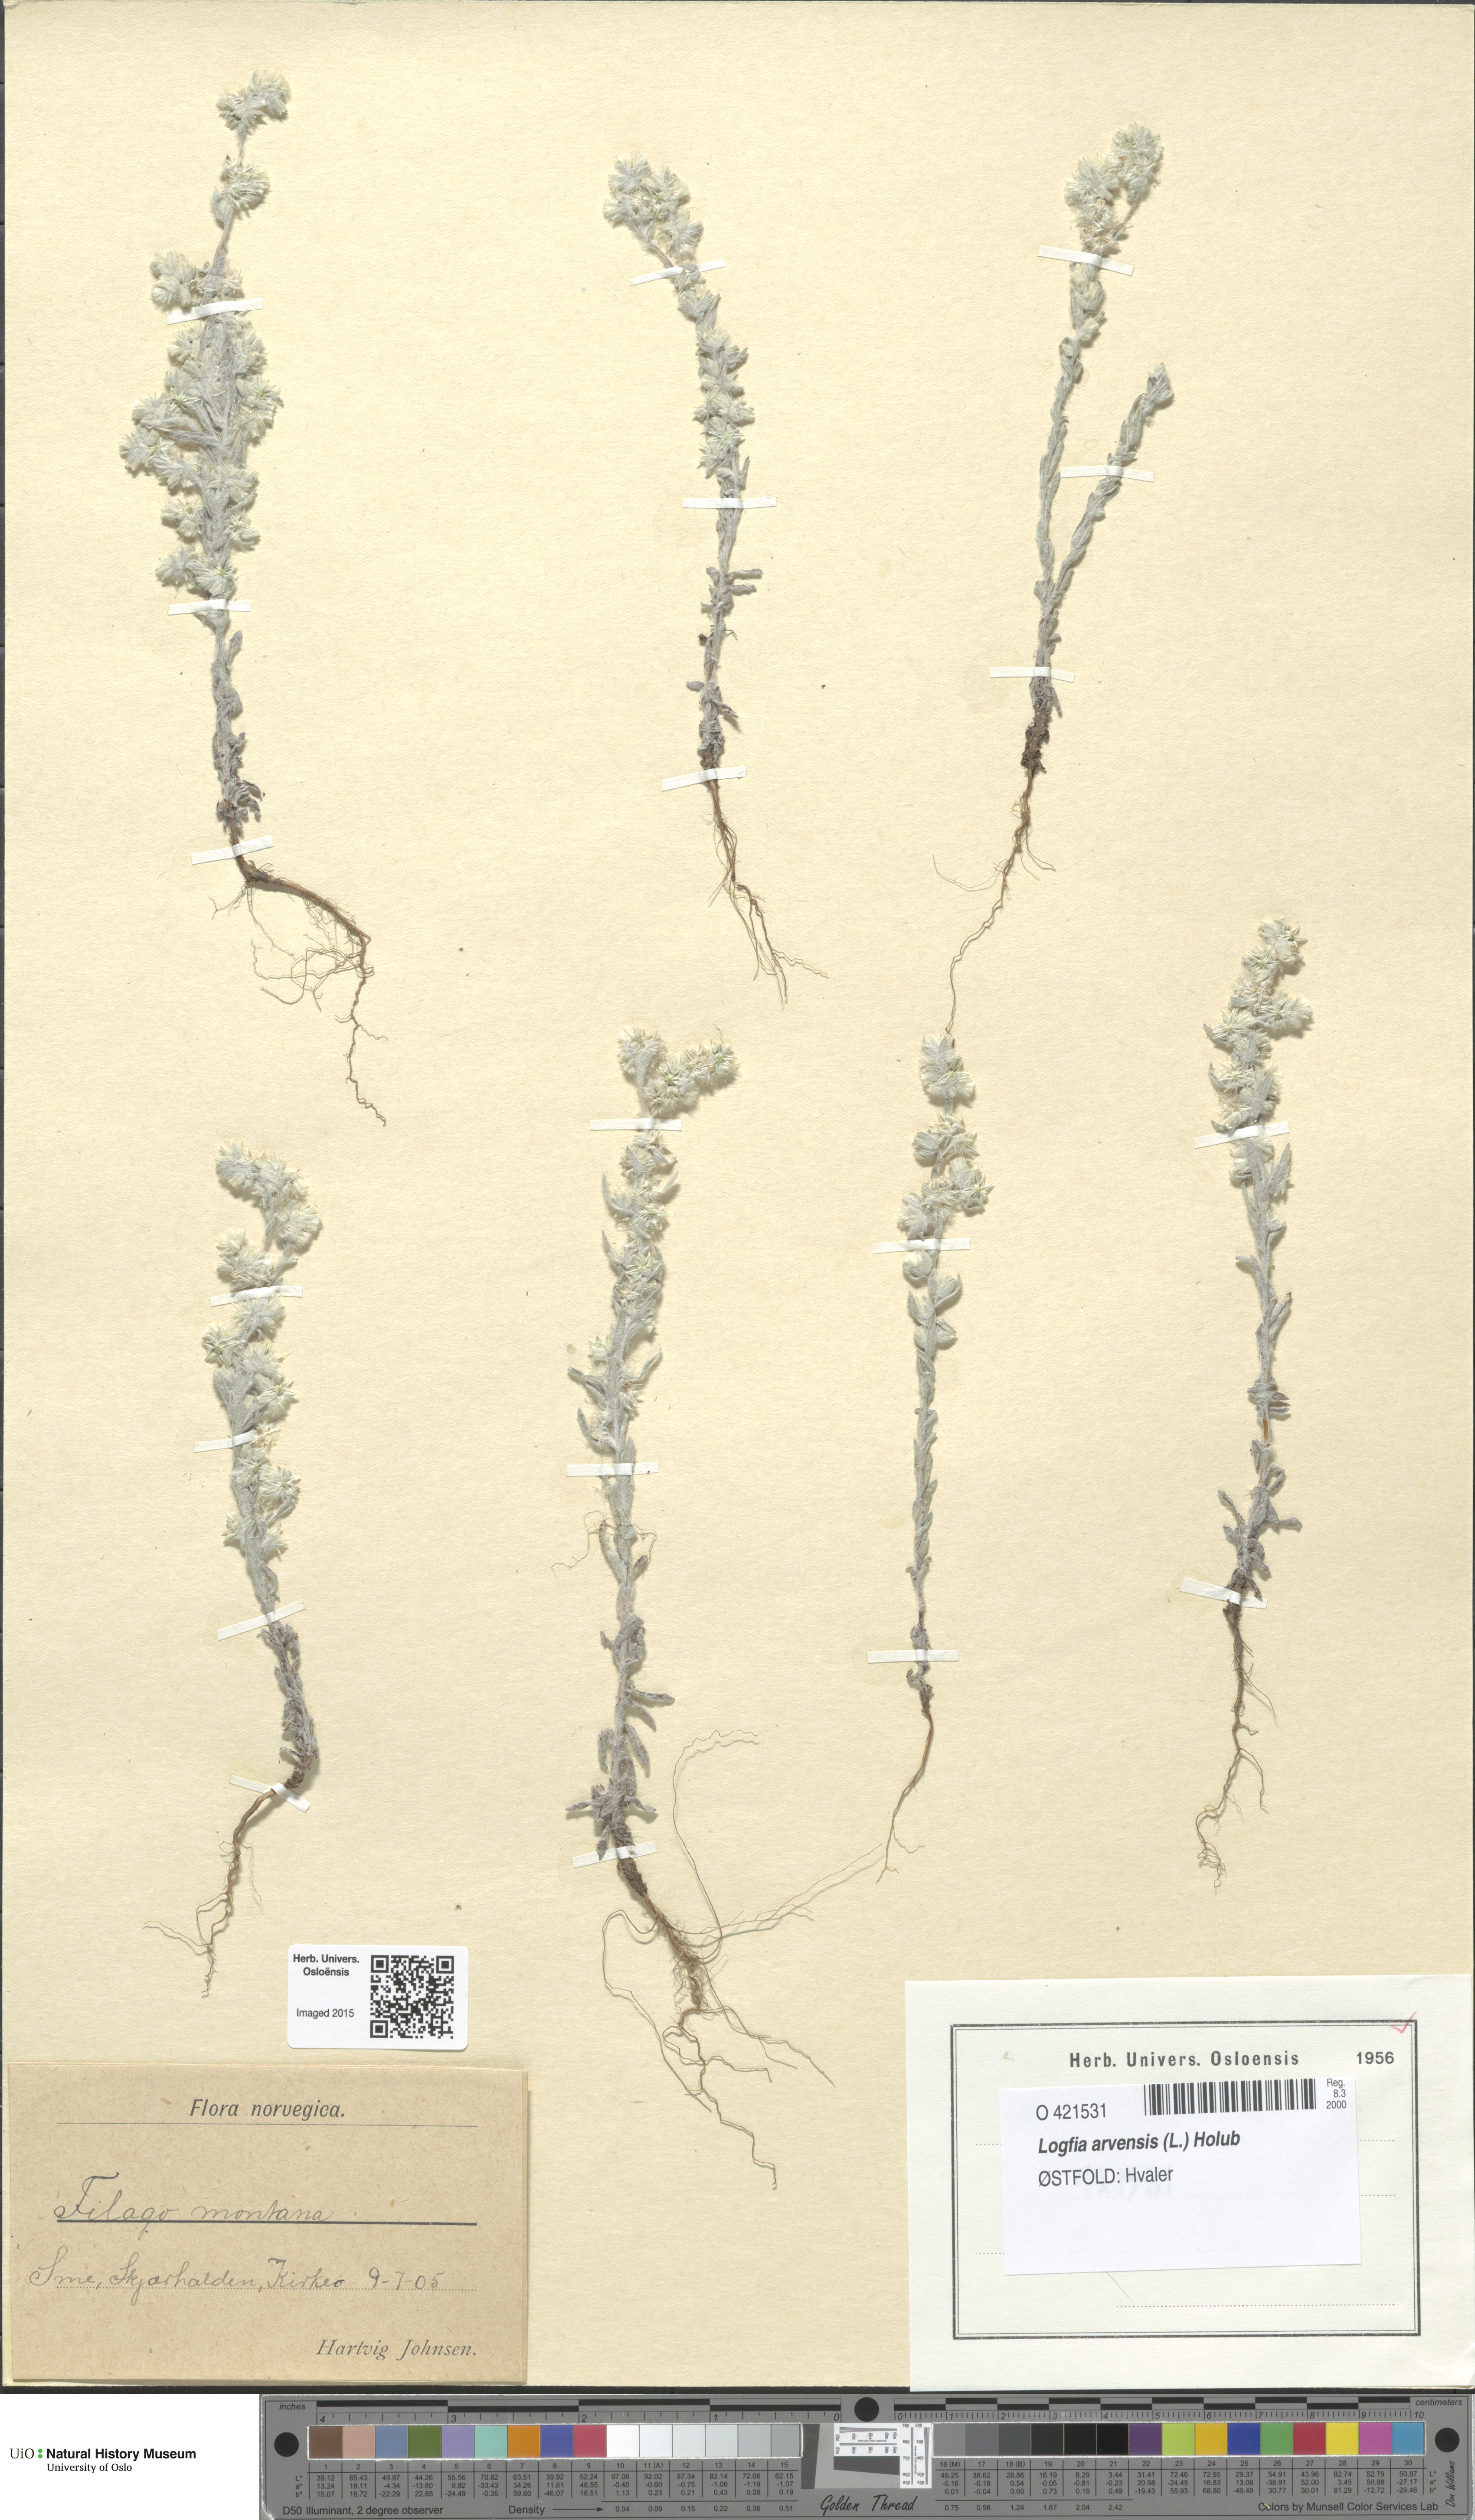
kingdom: Plantae
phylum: Tracheophyta
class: Magnoliopsida
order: Asterales
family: Asteraceae
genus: Filago
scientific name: Filago arvensis
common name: Field cudweed
